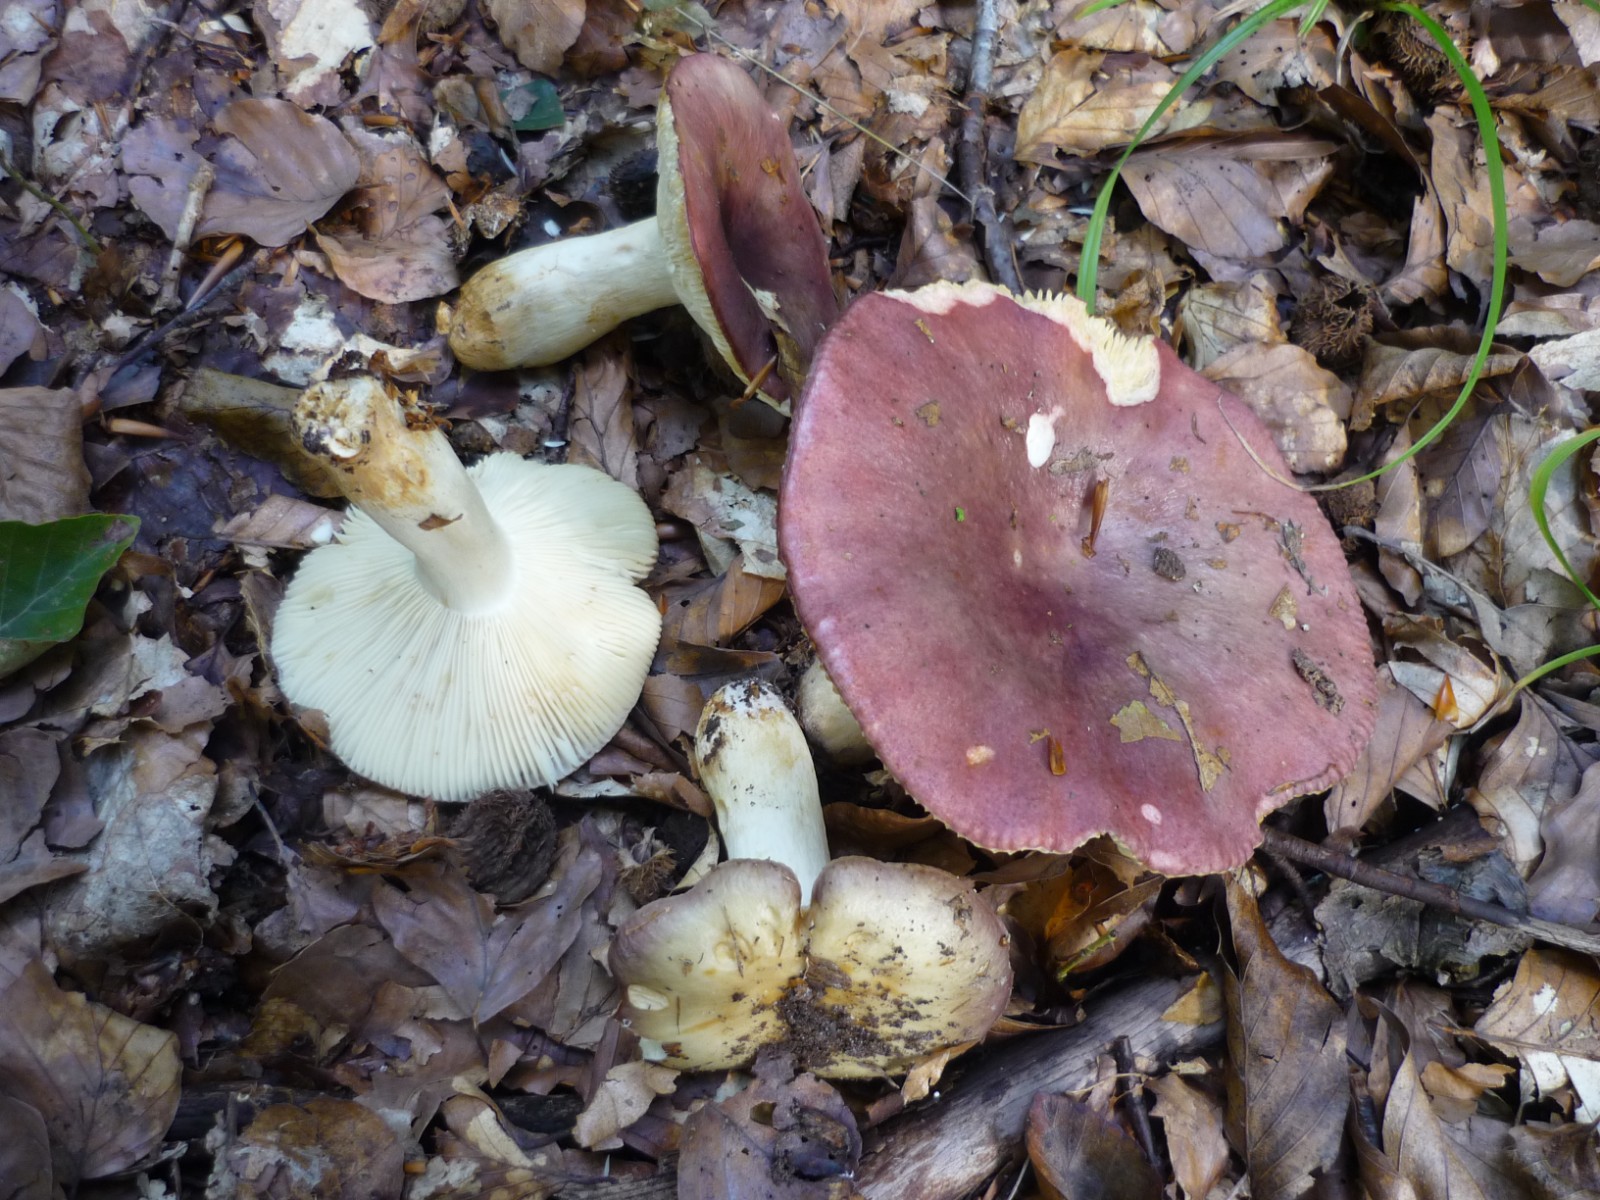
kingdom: Fungi
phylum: Basidiomycota
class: Agaricomycetes
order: Russulales
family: Russulaceae
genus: Russula
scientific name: Russula viscida
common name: knippe-skørhat
